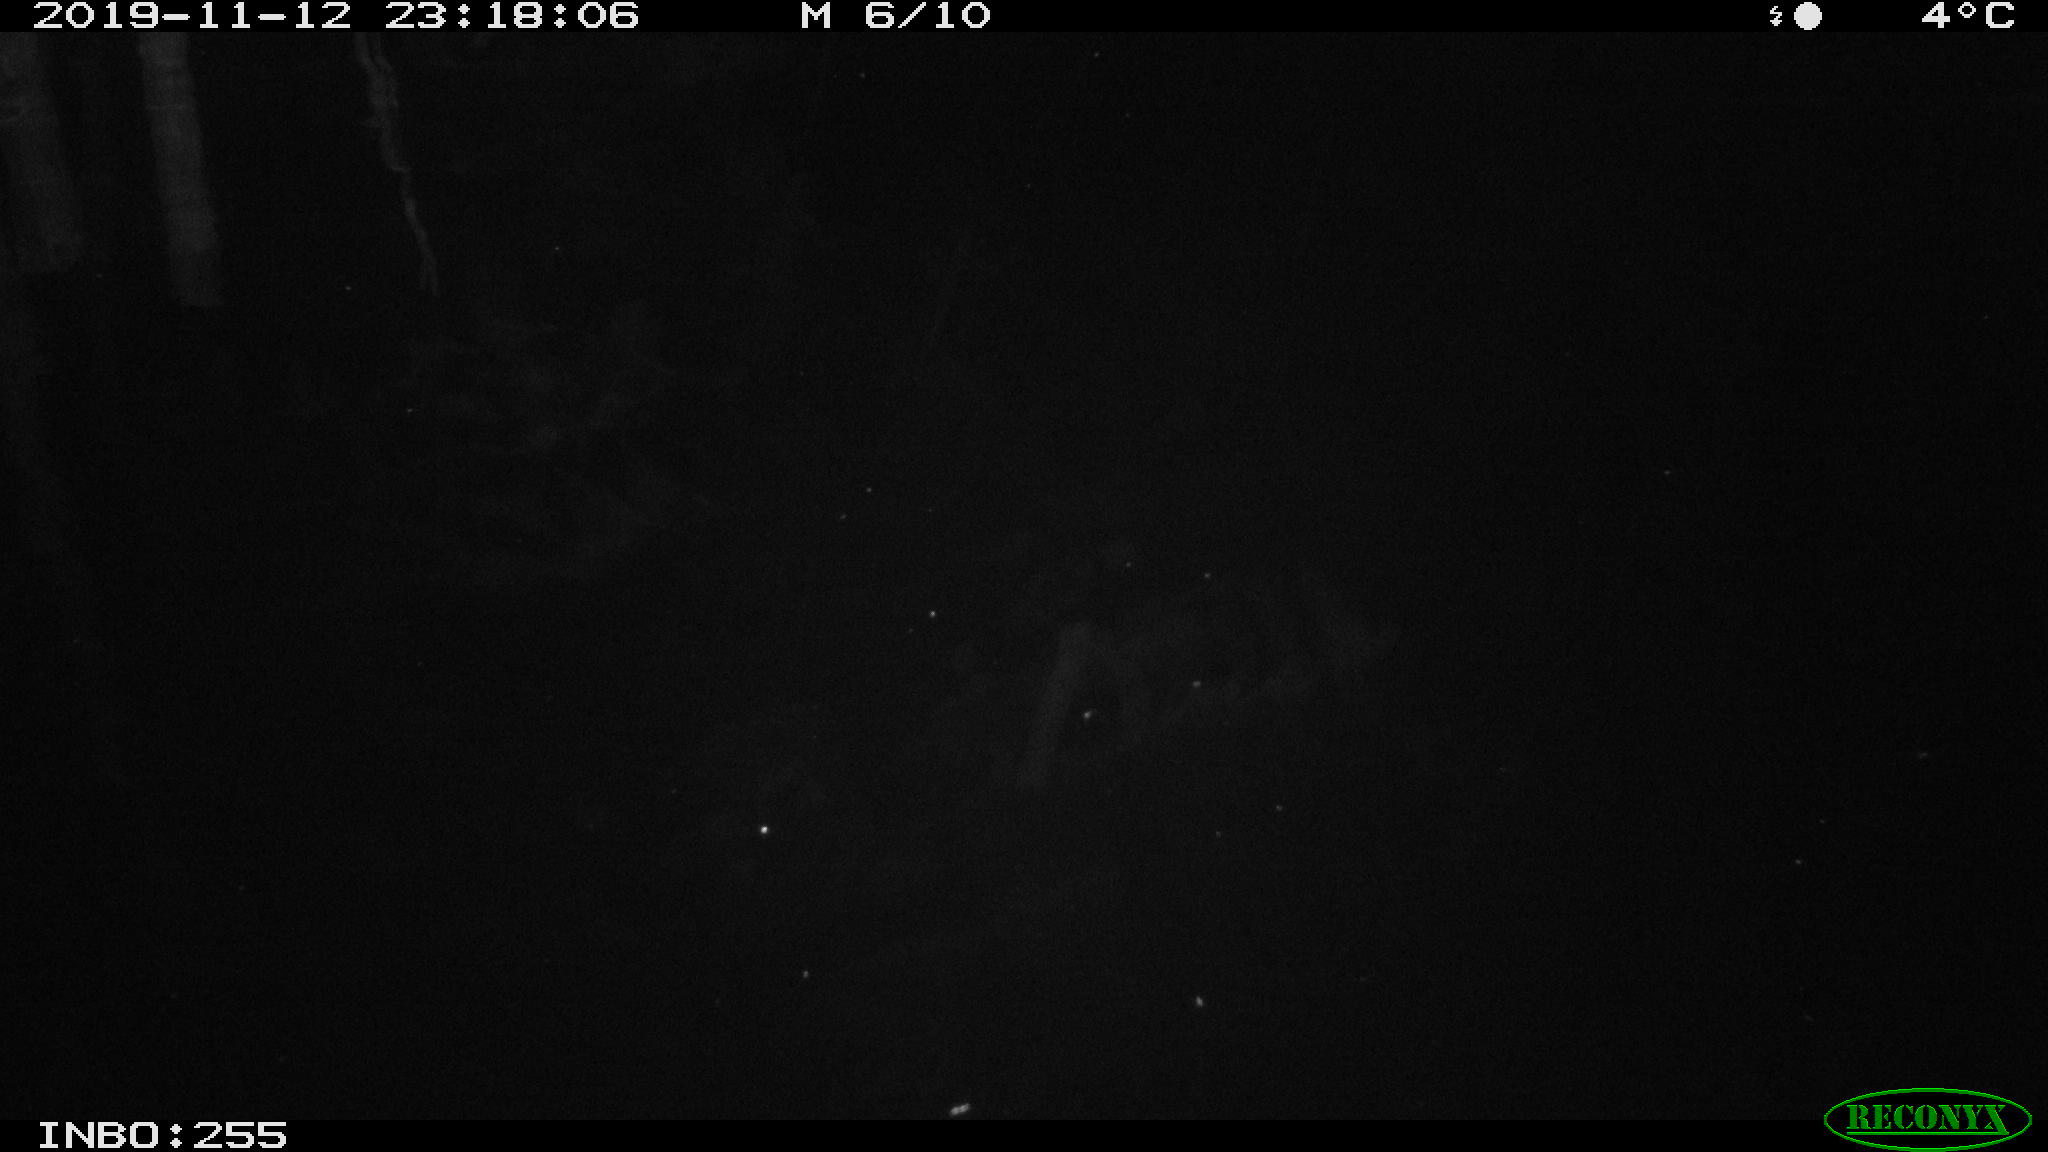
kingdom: Animalia
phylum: Chordata
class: Mammalia
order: Rodentia
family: Muridae
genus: Rattus
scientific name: Rattus norvegicus
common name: Brown rat
